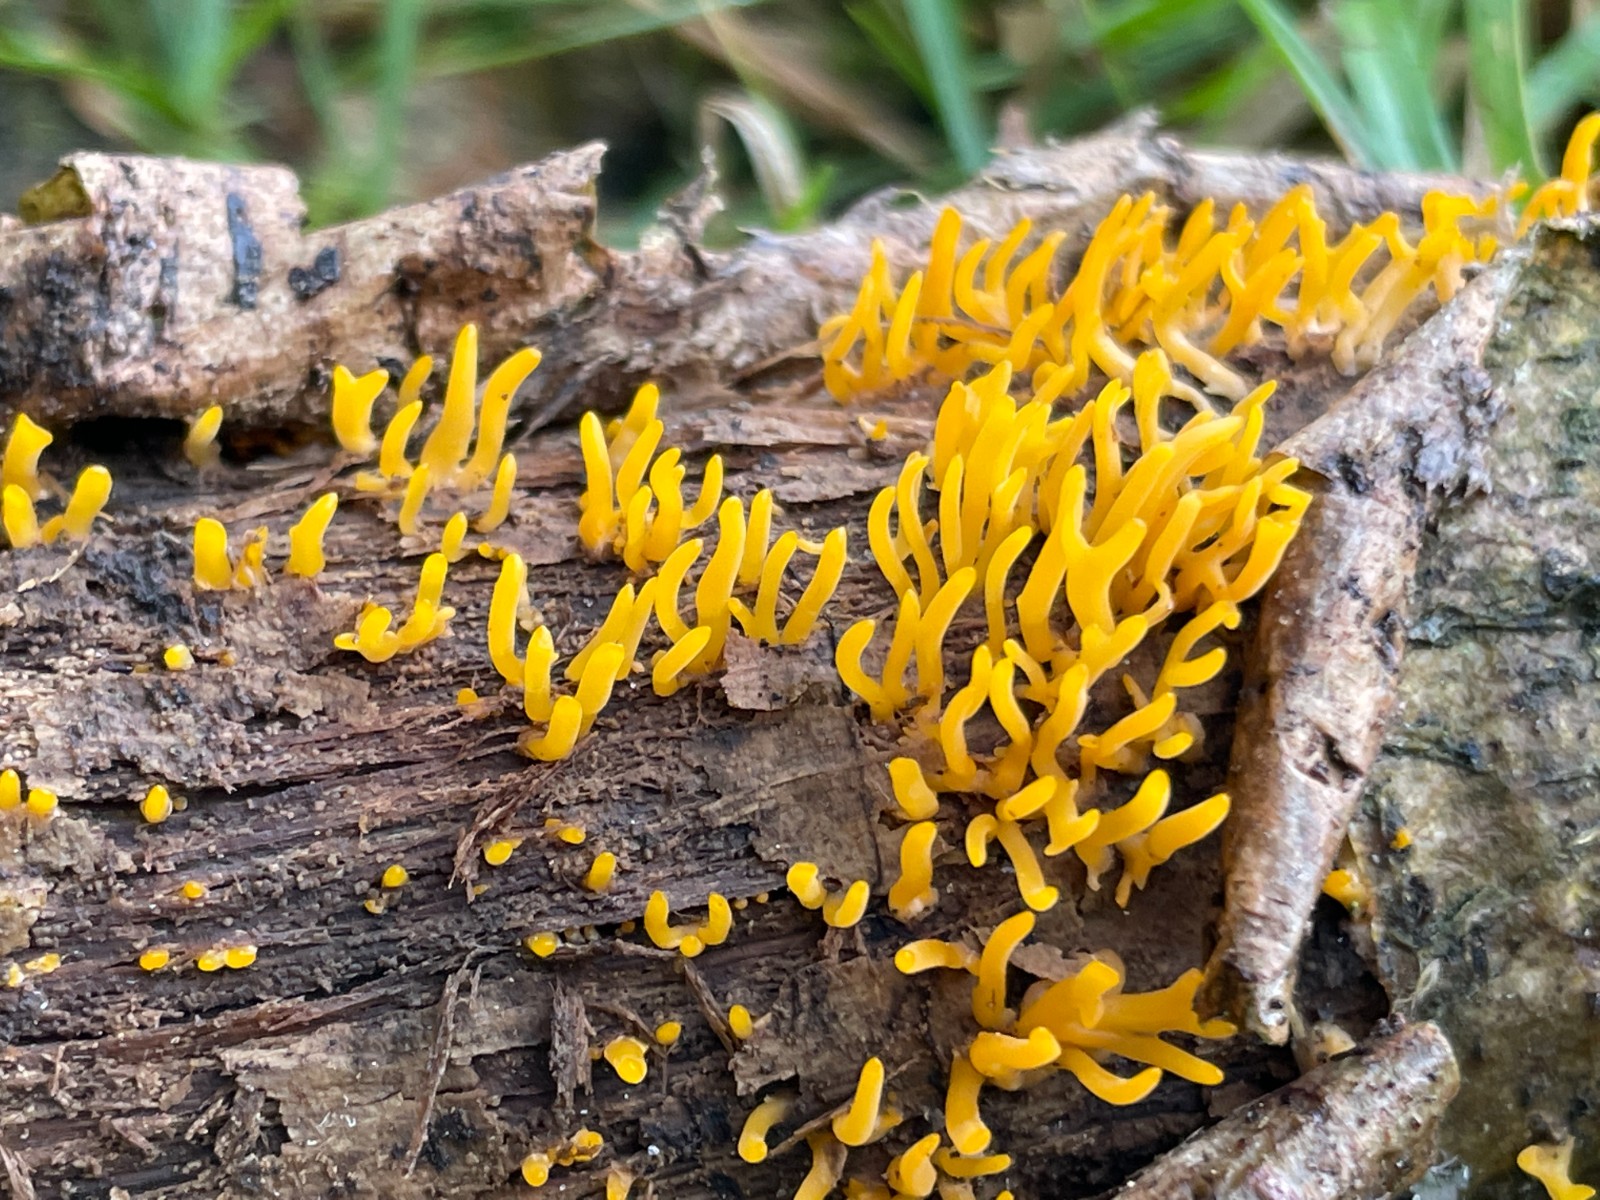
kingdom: Fungi
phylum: Basidiomycota
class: Dacrymycetes
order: Dacrymycetales
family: Dacrymycetaceae
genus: Calocera
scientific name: Calocera cornea
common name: liden guldgaffel
